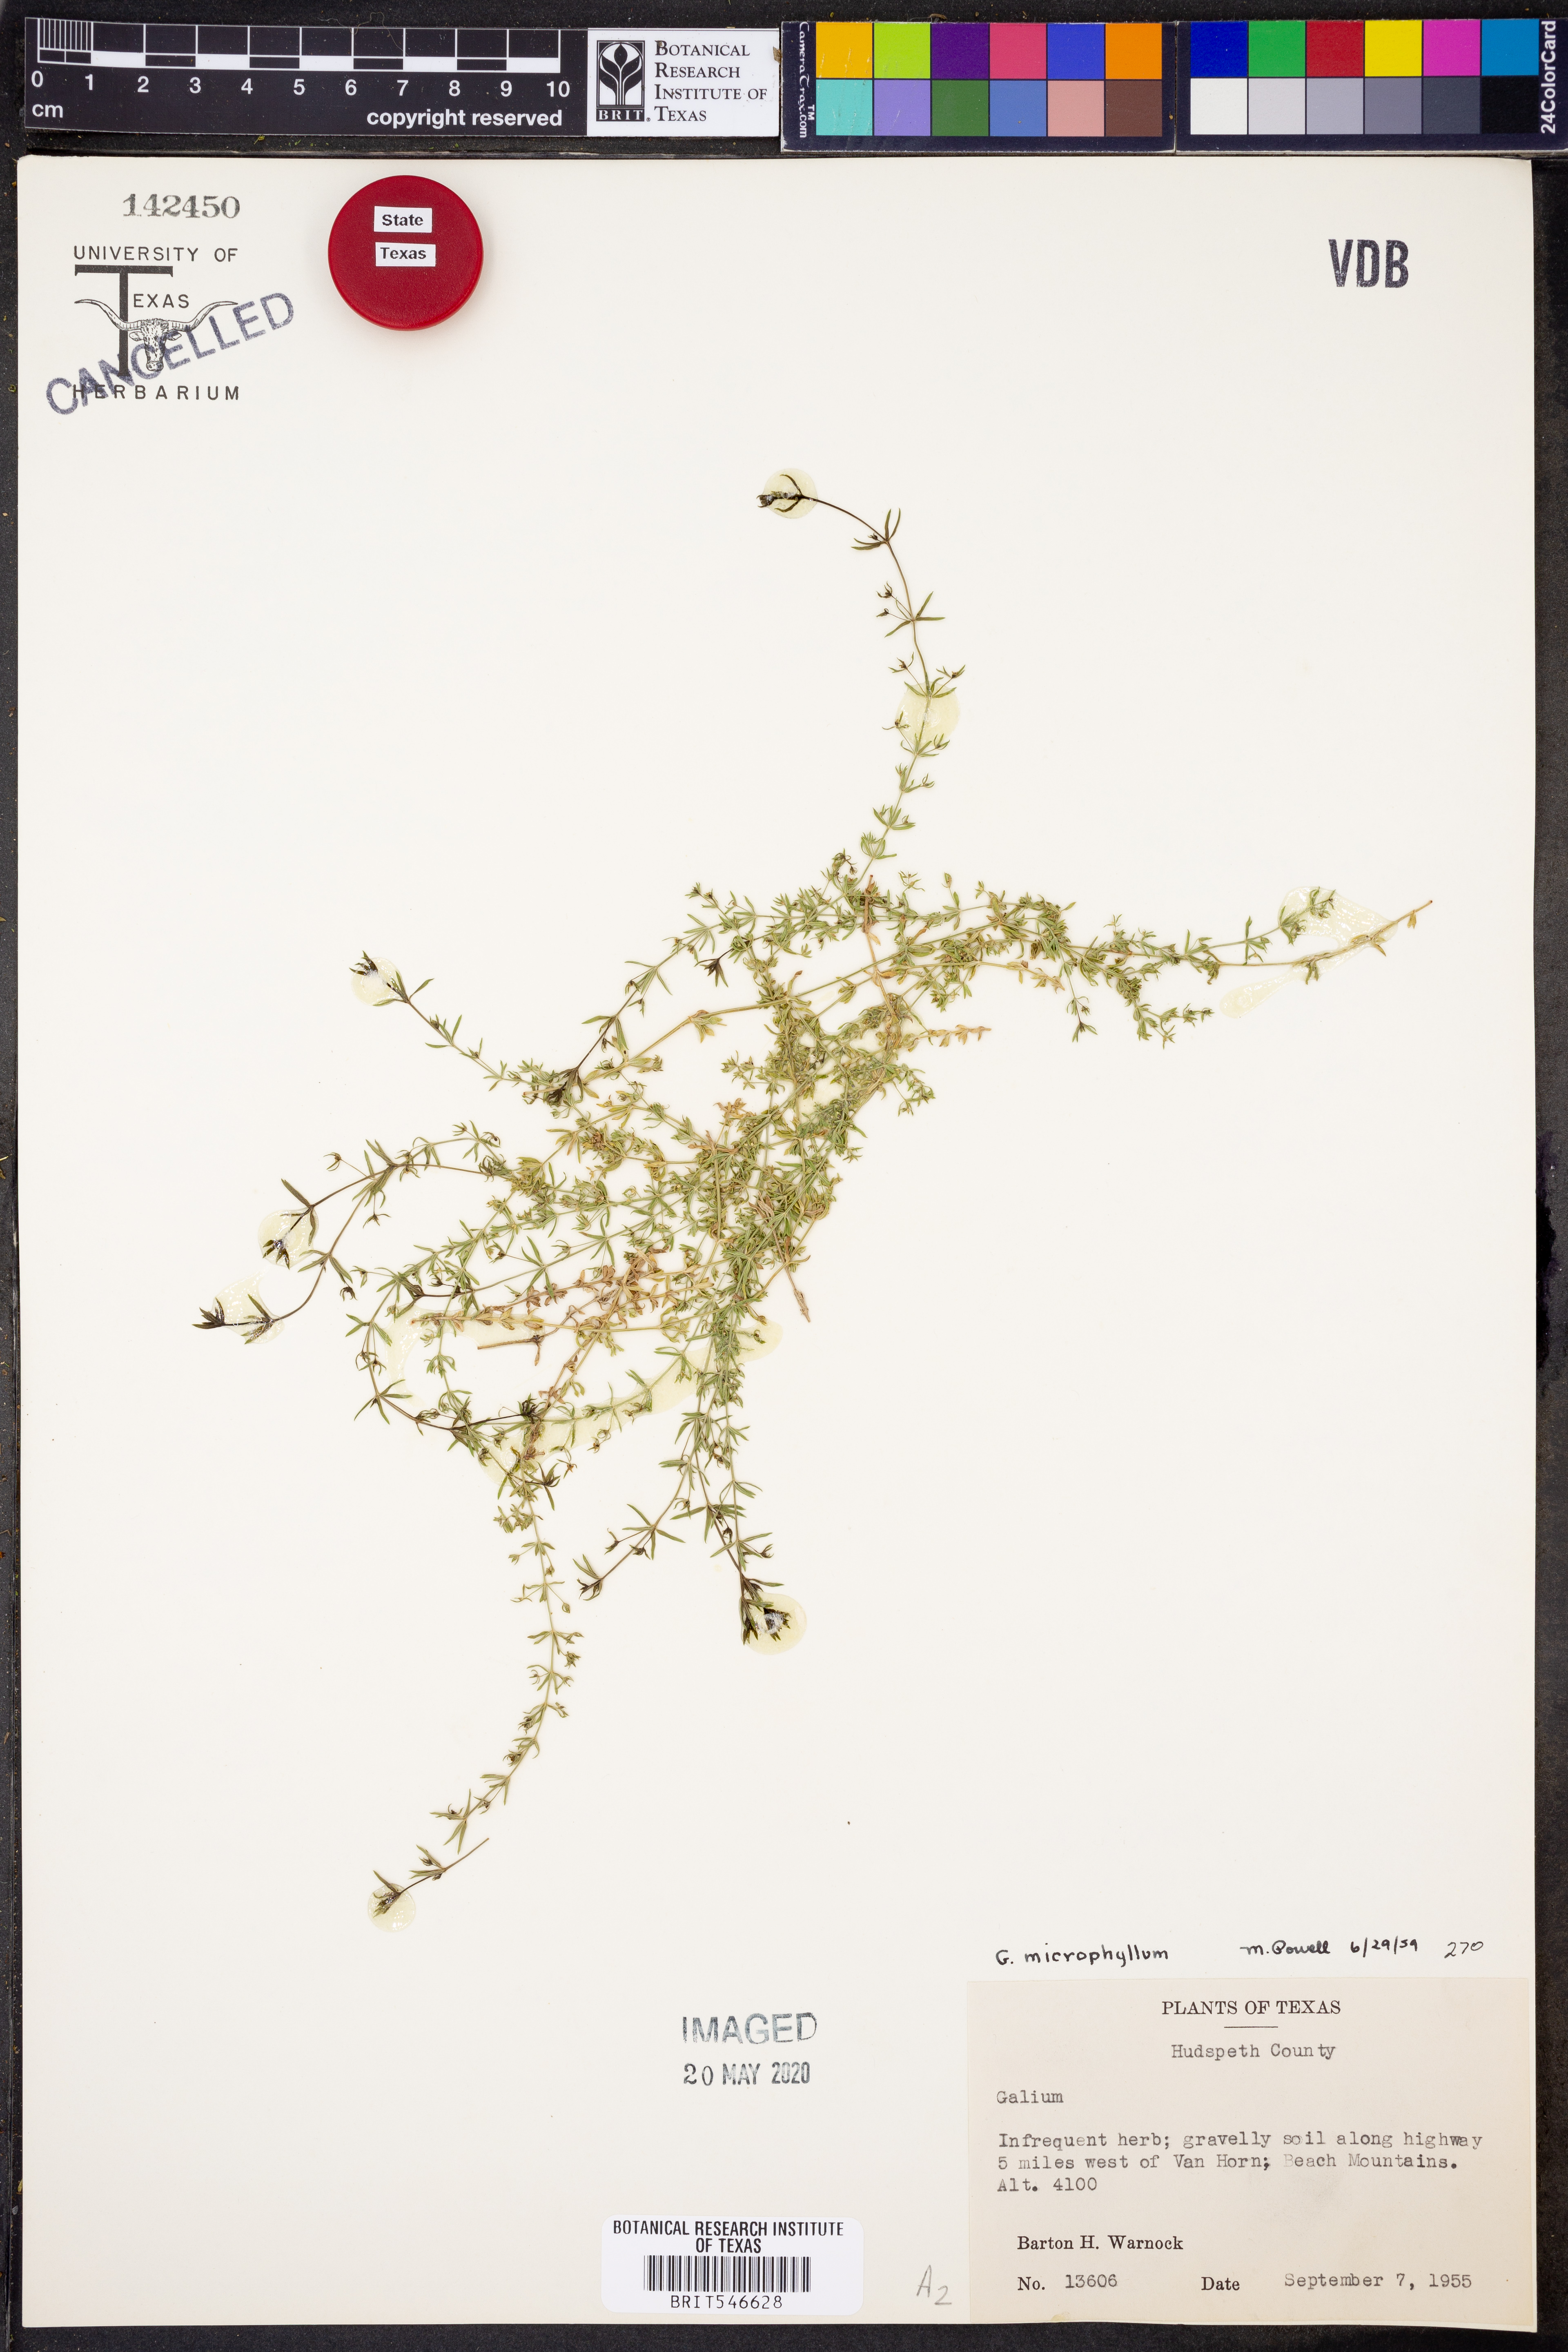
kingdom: Plantae
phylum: Tracheophyta
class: Magnoliopsida
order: Gentianales
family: Rubiaceae
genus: Galium
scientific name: Galium microphyllum
